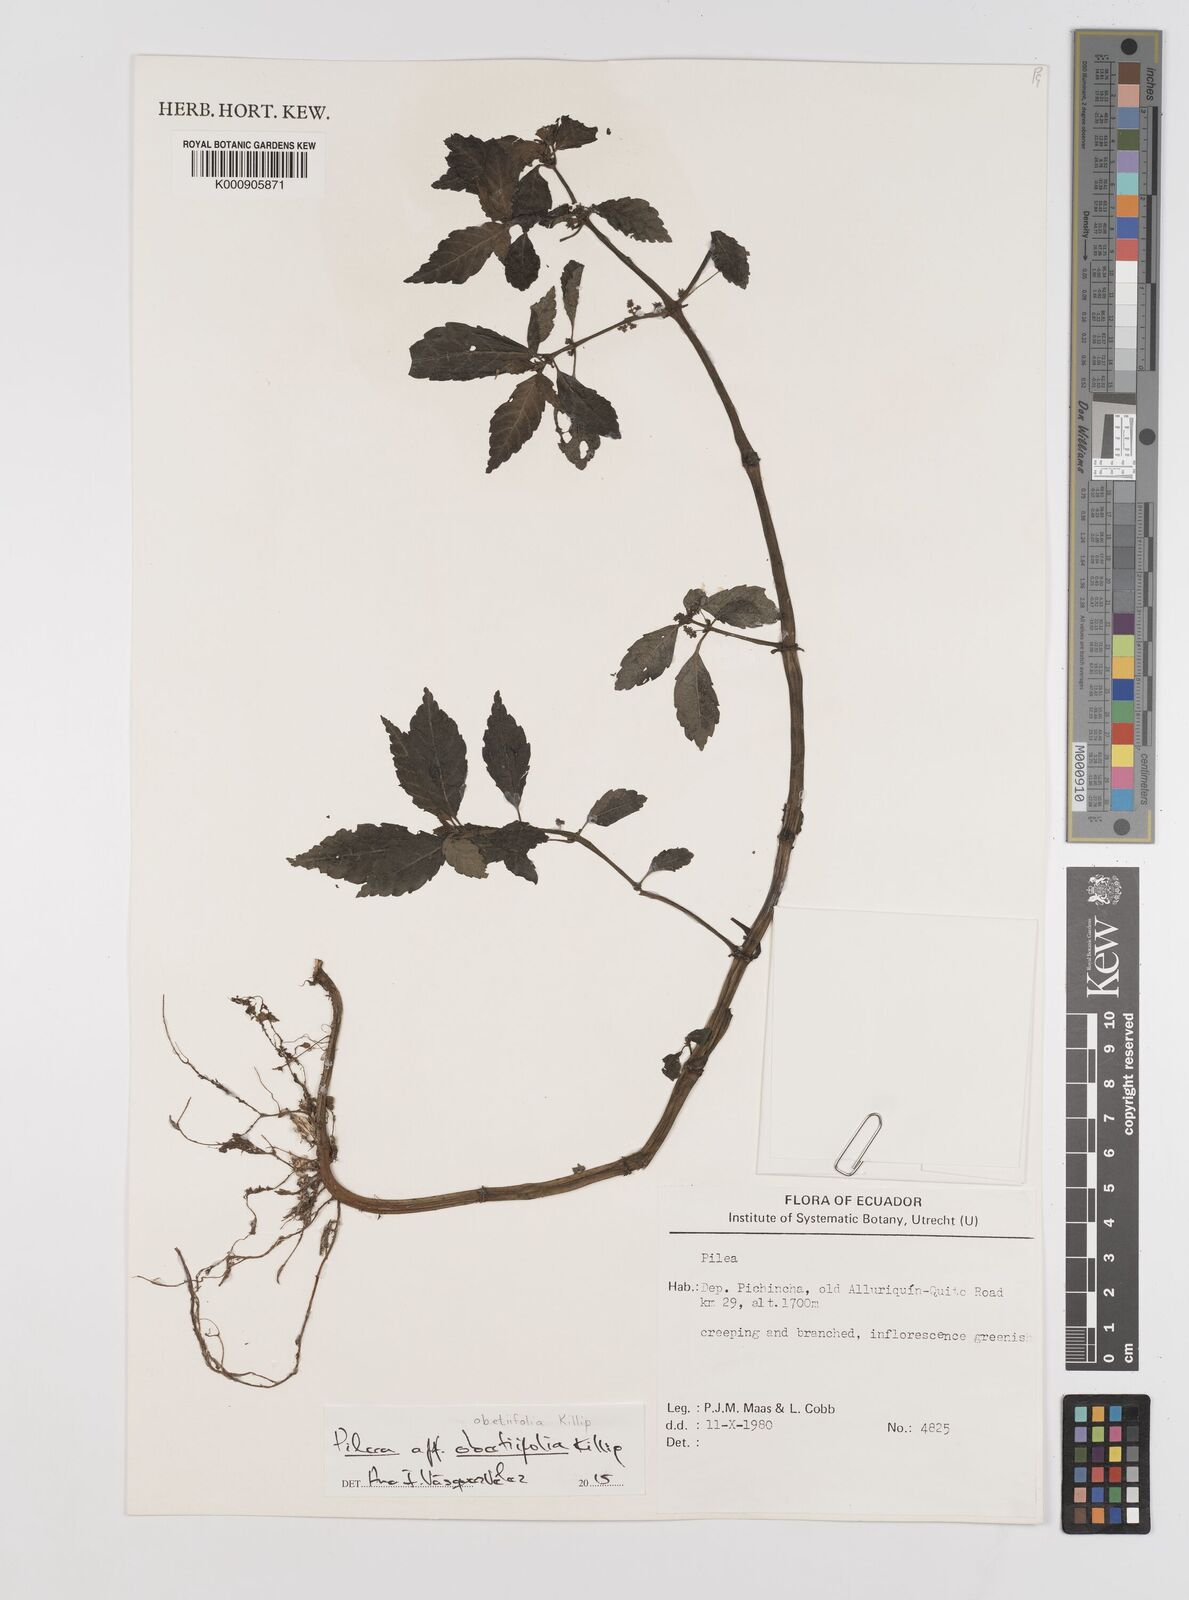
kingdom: Plantae
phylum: Tracheophyta
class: Magnoliopsida
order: Rosales
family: Urticaceae
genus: Pilea
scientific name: Pilea obetiifolia
